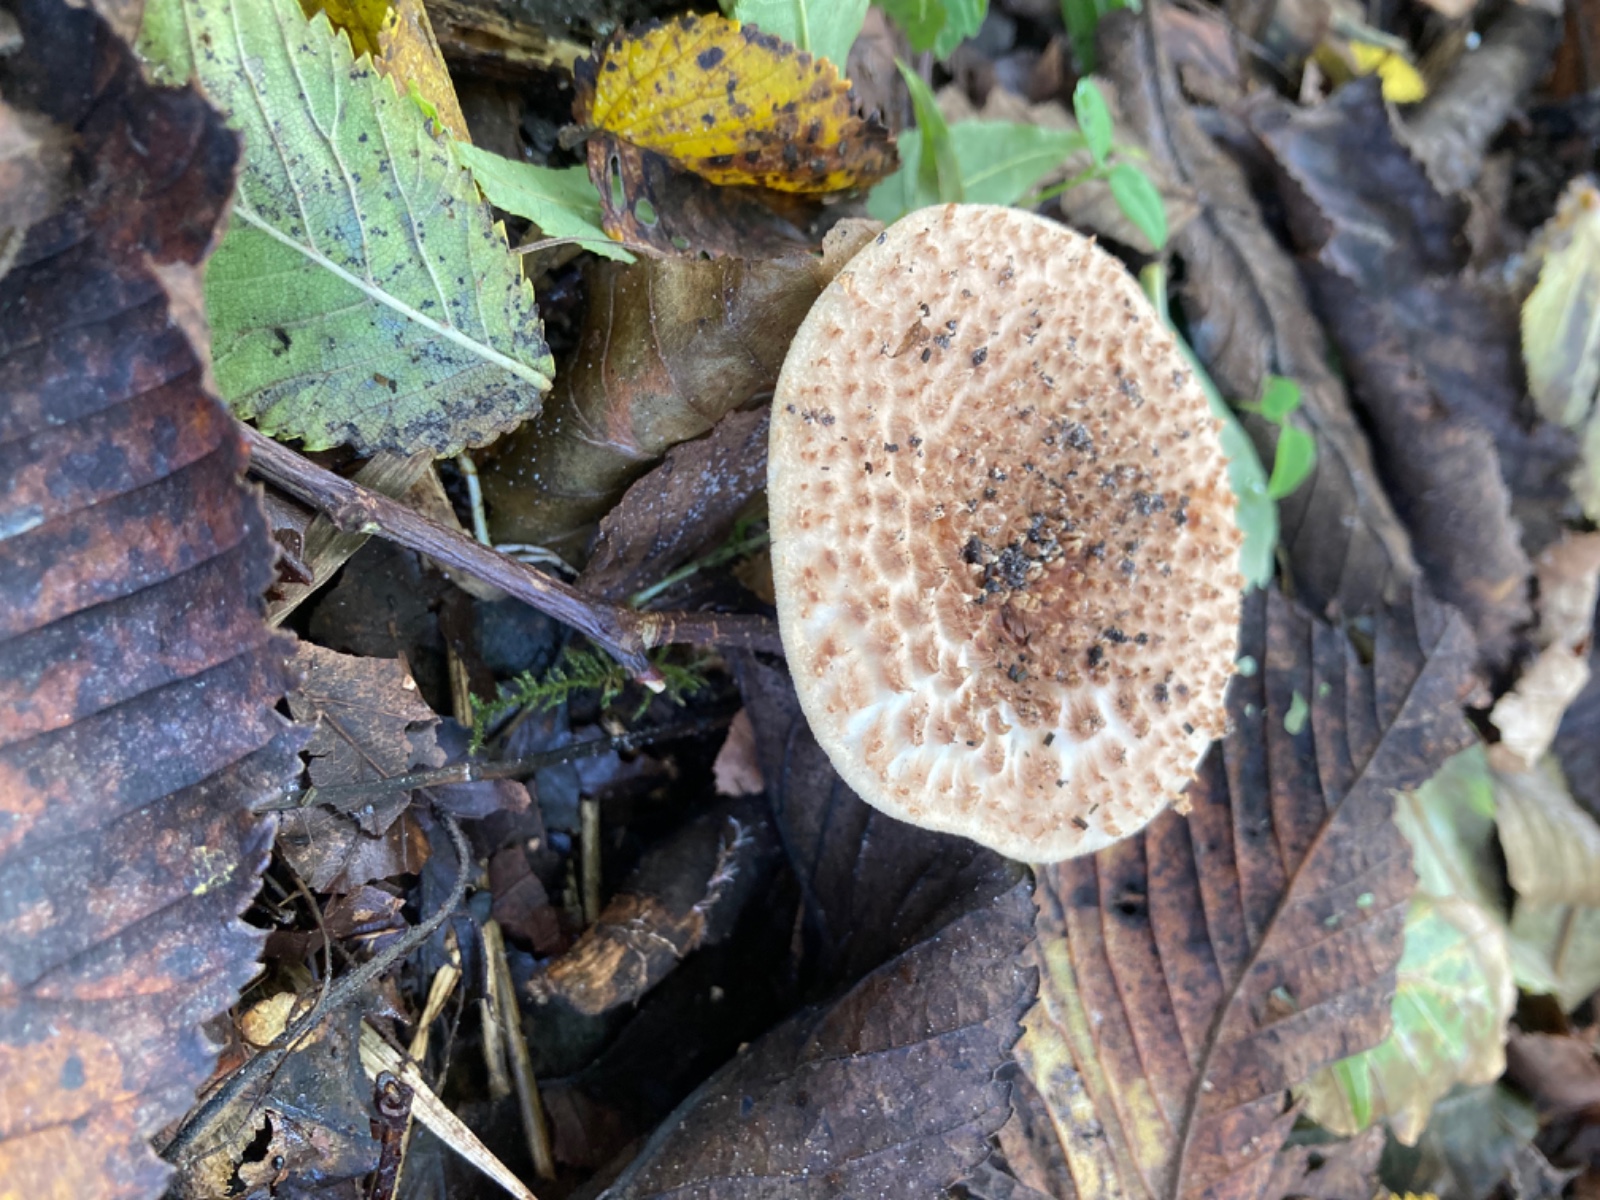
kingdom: Fungi
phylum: Basidiomycota
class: Agaricomycetes
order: Agaricales
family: Agaricaceae
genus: Echinoderma
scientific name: Echinoderma
